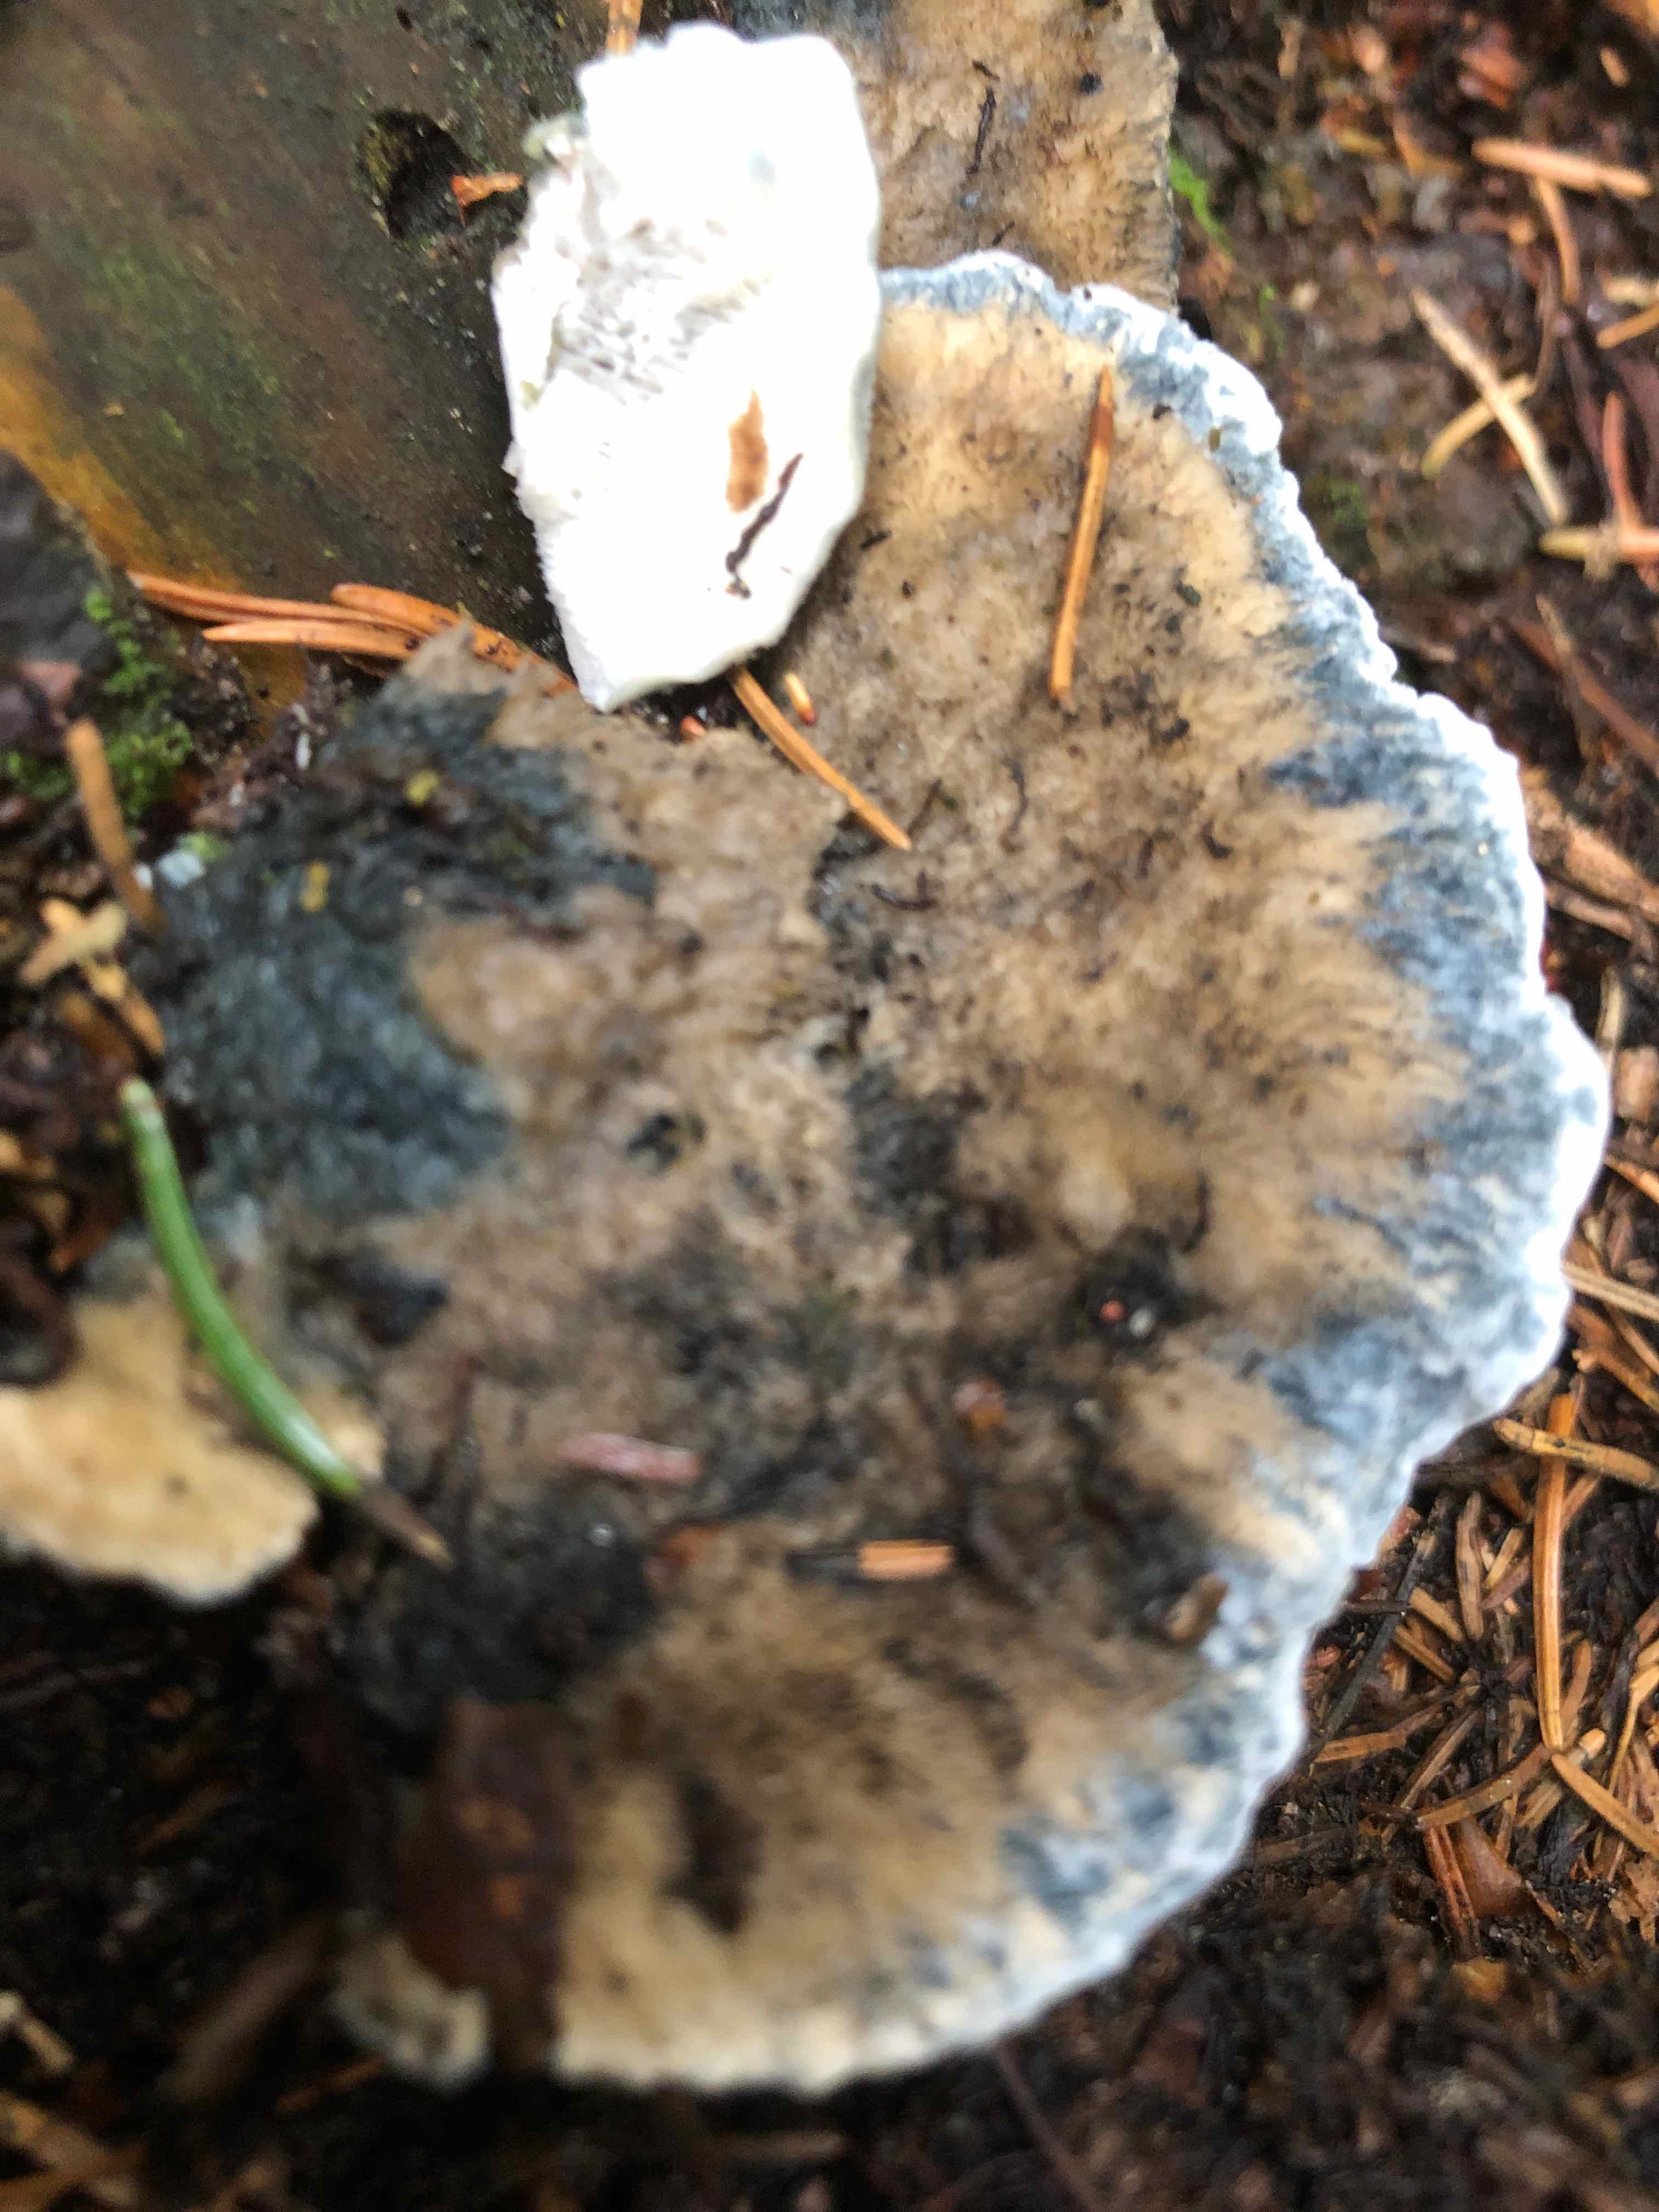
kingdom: Fungi
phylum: Basidiomycota
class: Agaricomycetes
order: Polyporales
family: Polyporaceae
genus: Cyanosporus
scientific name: Cyanosporus caesius
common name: blålig kødporesvamp
